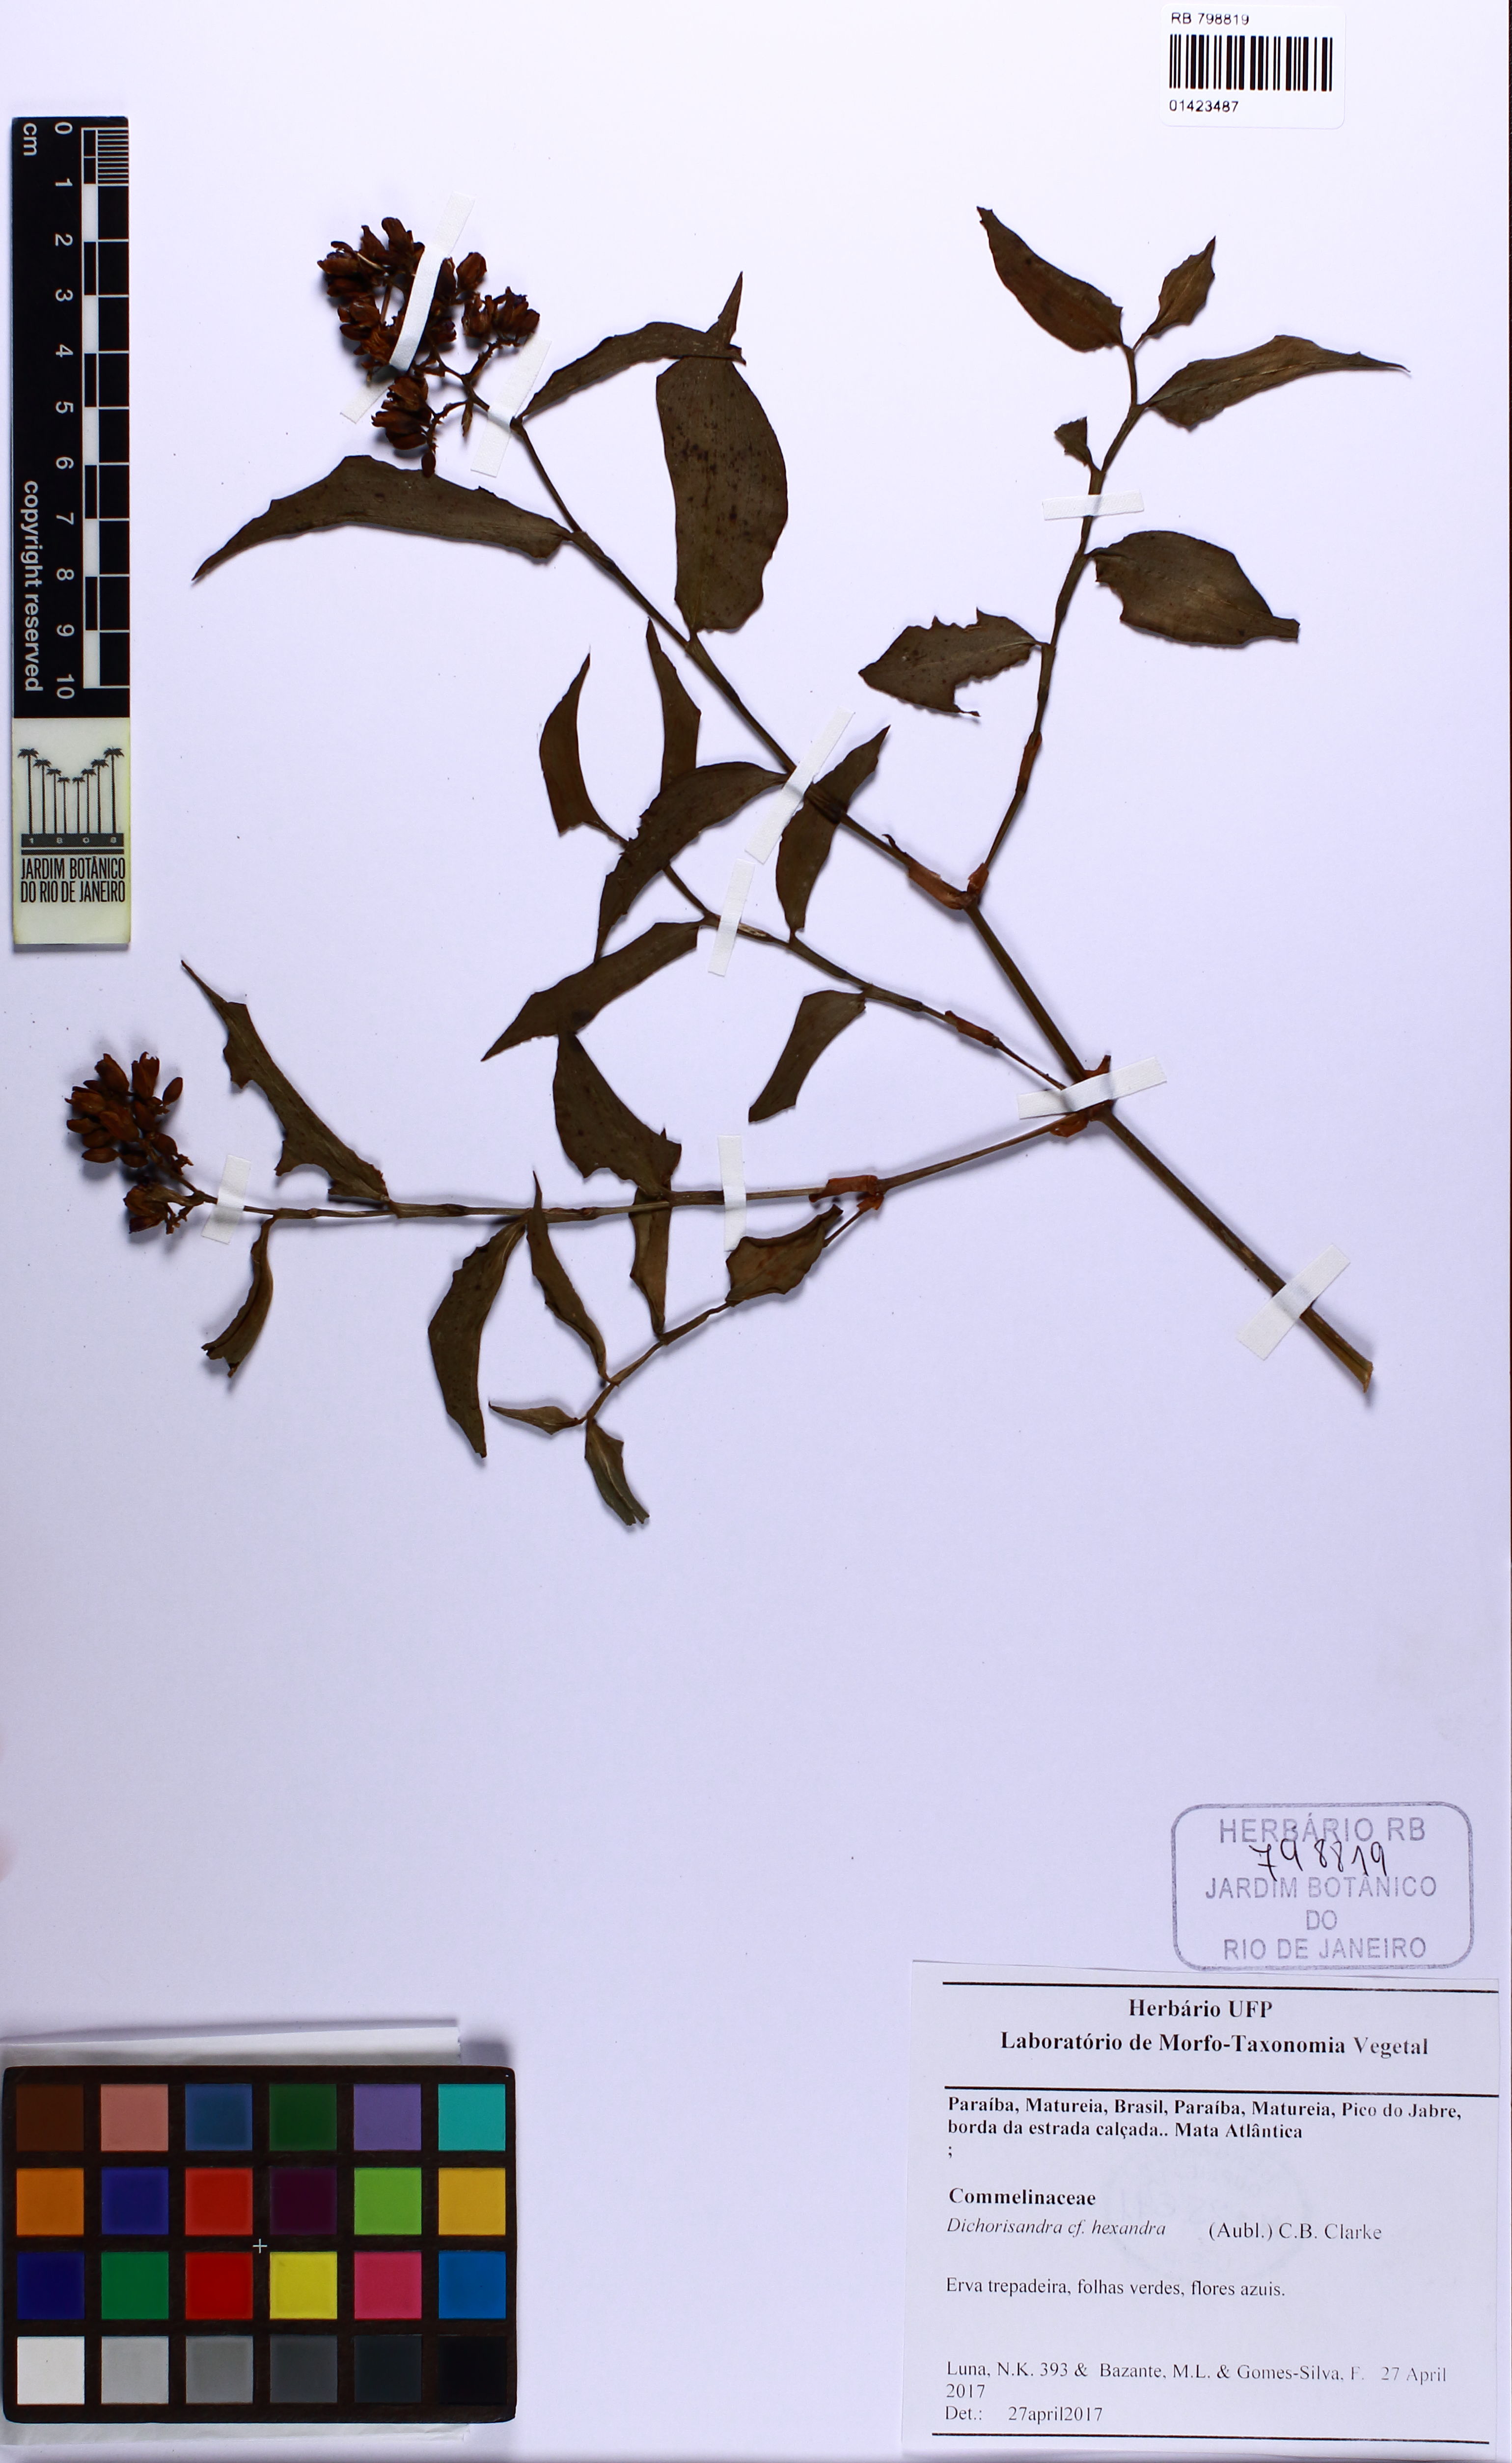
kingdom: Plantae
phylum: Tracheophyta
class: Liliopsida
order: Commelinales
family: Commelinaceae
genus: Dichorisandra
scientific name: Dichorisandra hexandra
